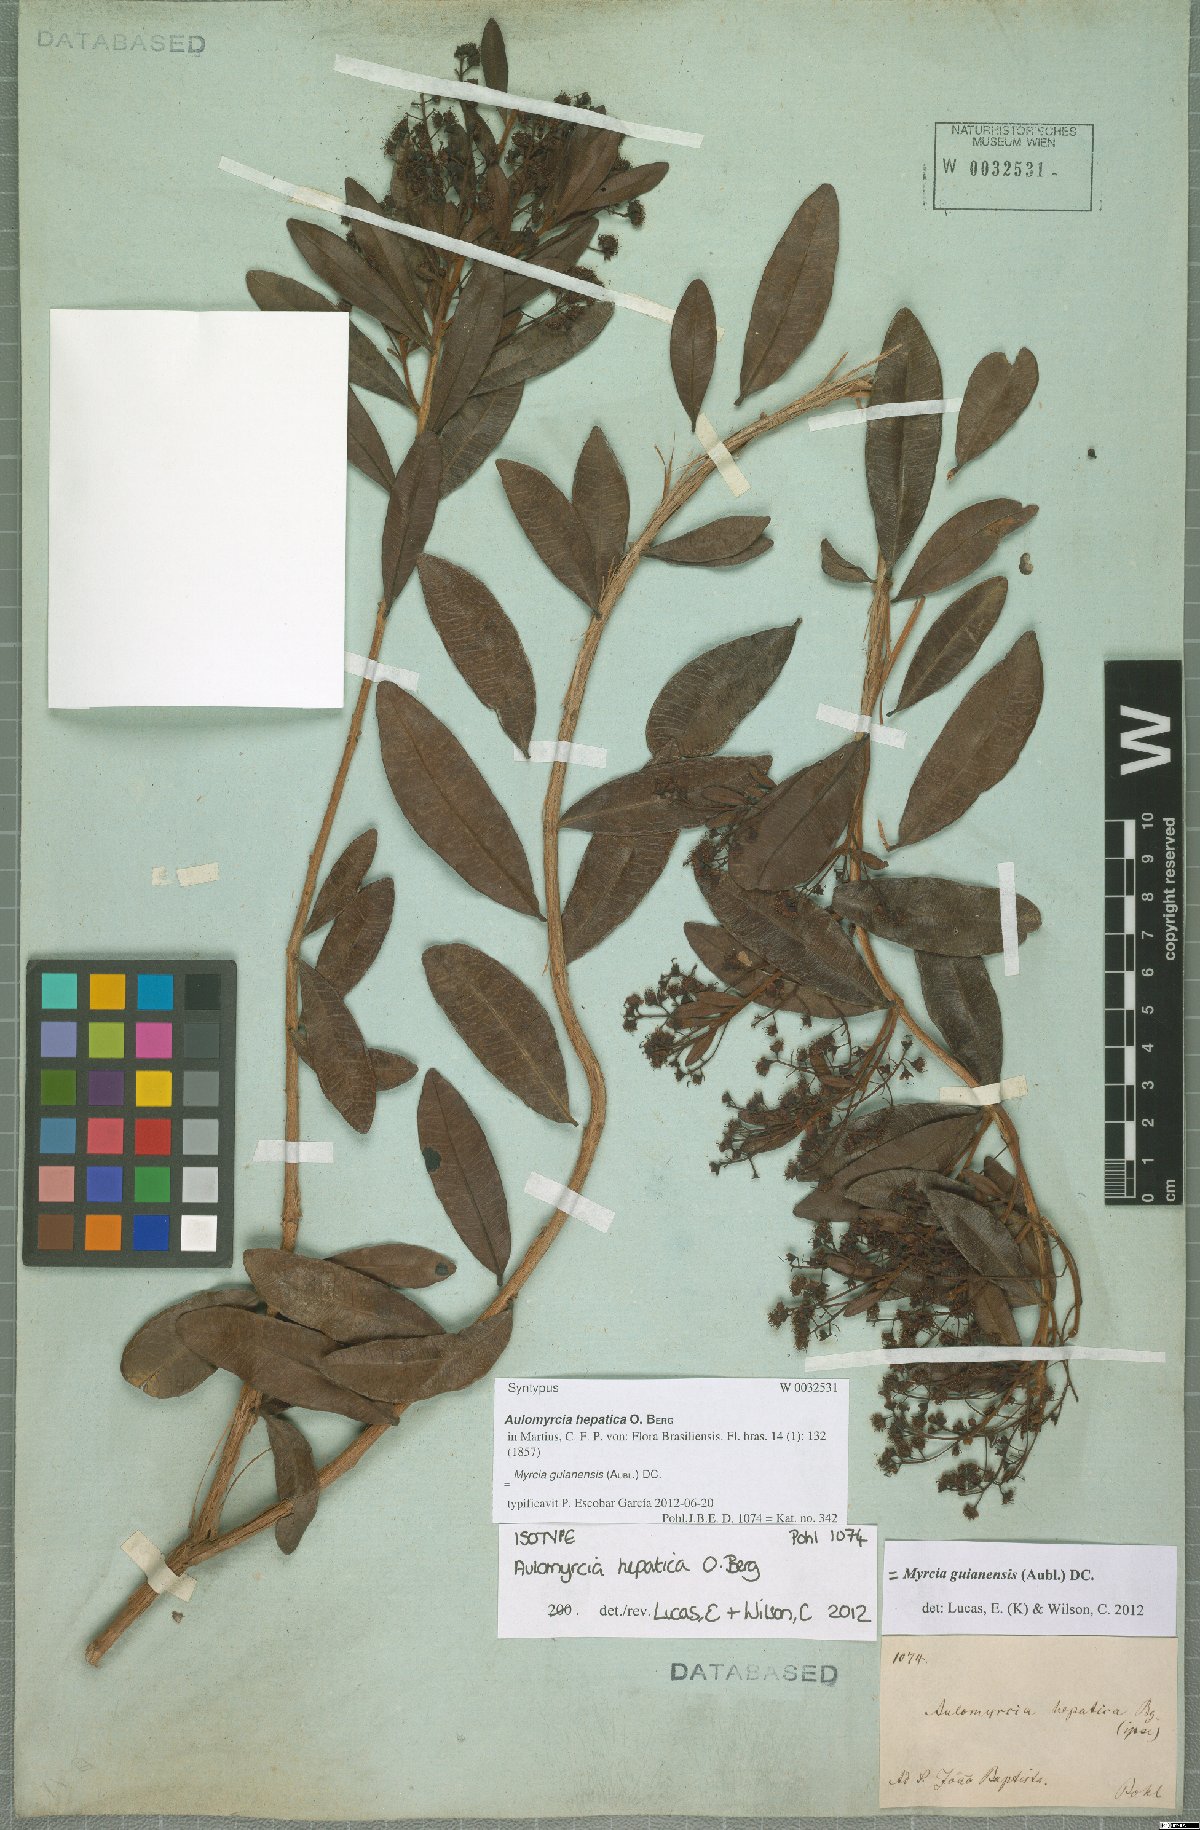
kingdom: Plantae
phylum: Tracheophyta
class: Magnoliopsida
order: Myrtales
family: Myrtaceae
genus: Myrcia
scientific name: Myrcia guianensis
